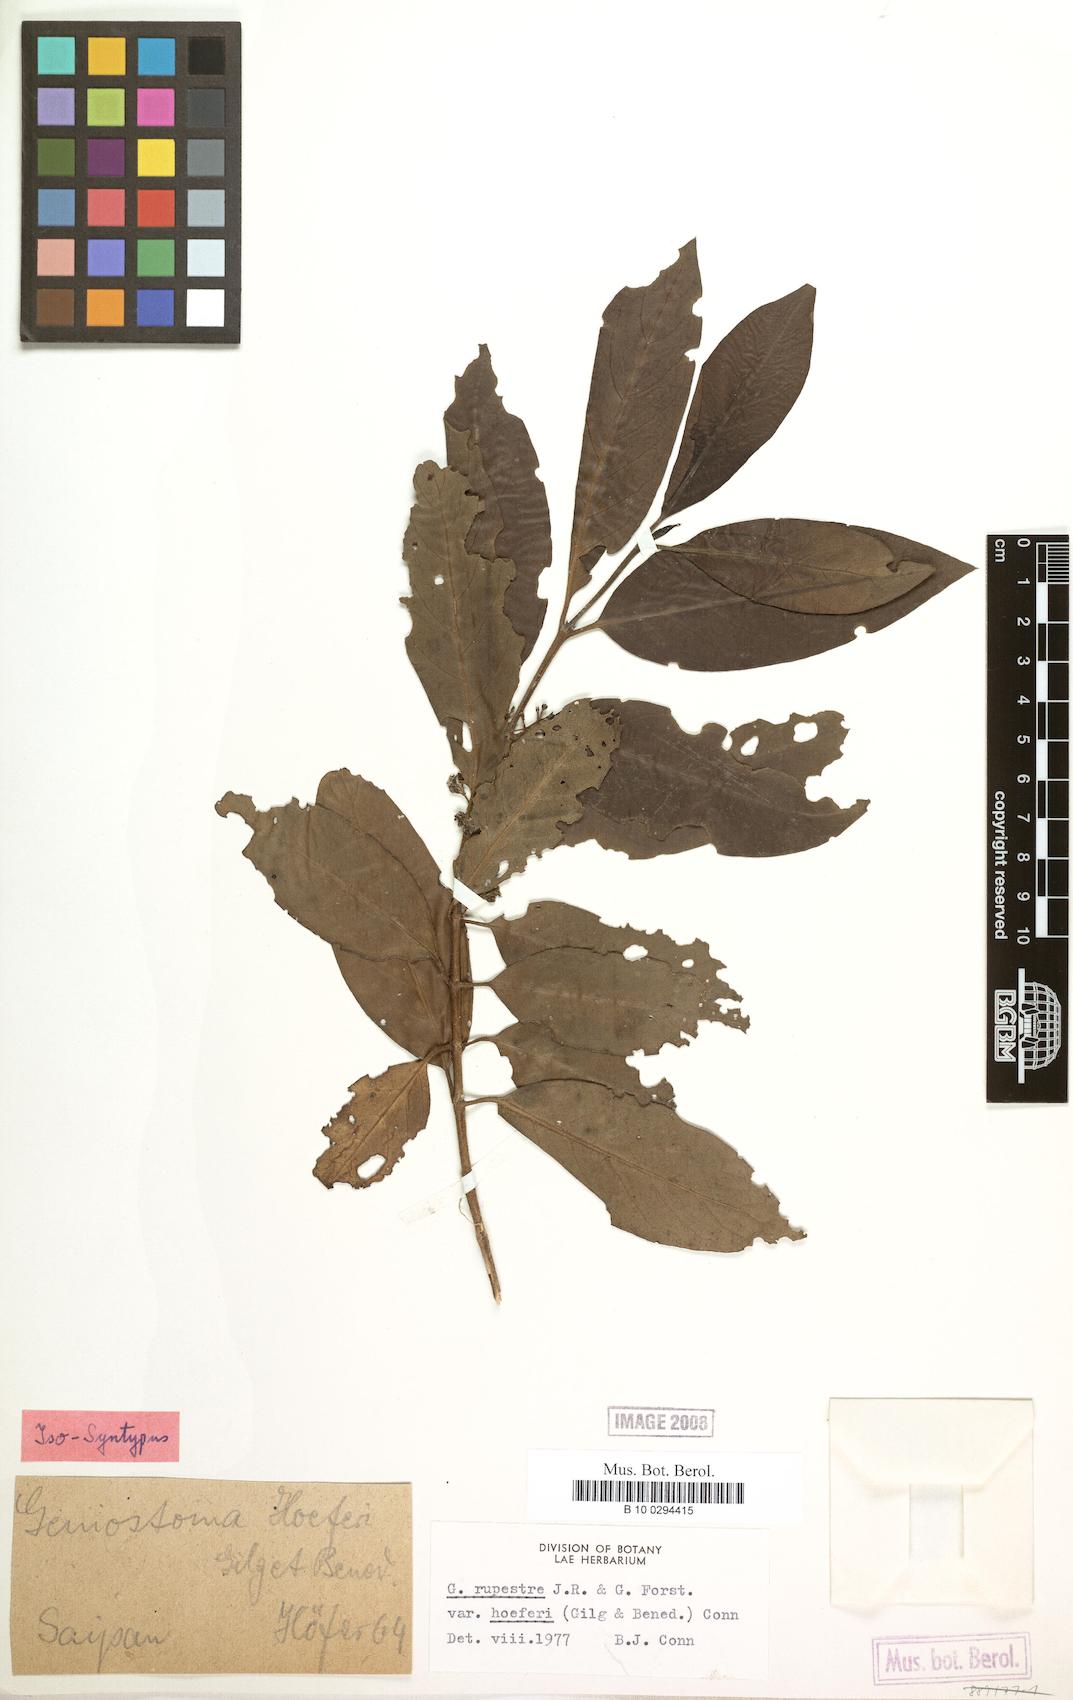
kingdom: Plantae
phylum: Tracheophyta
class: Magnoliopsida
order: Gentianales
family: Loganiaceae
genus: Geniostoma
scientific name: Geniostoma rupestre
